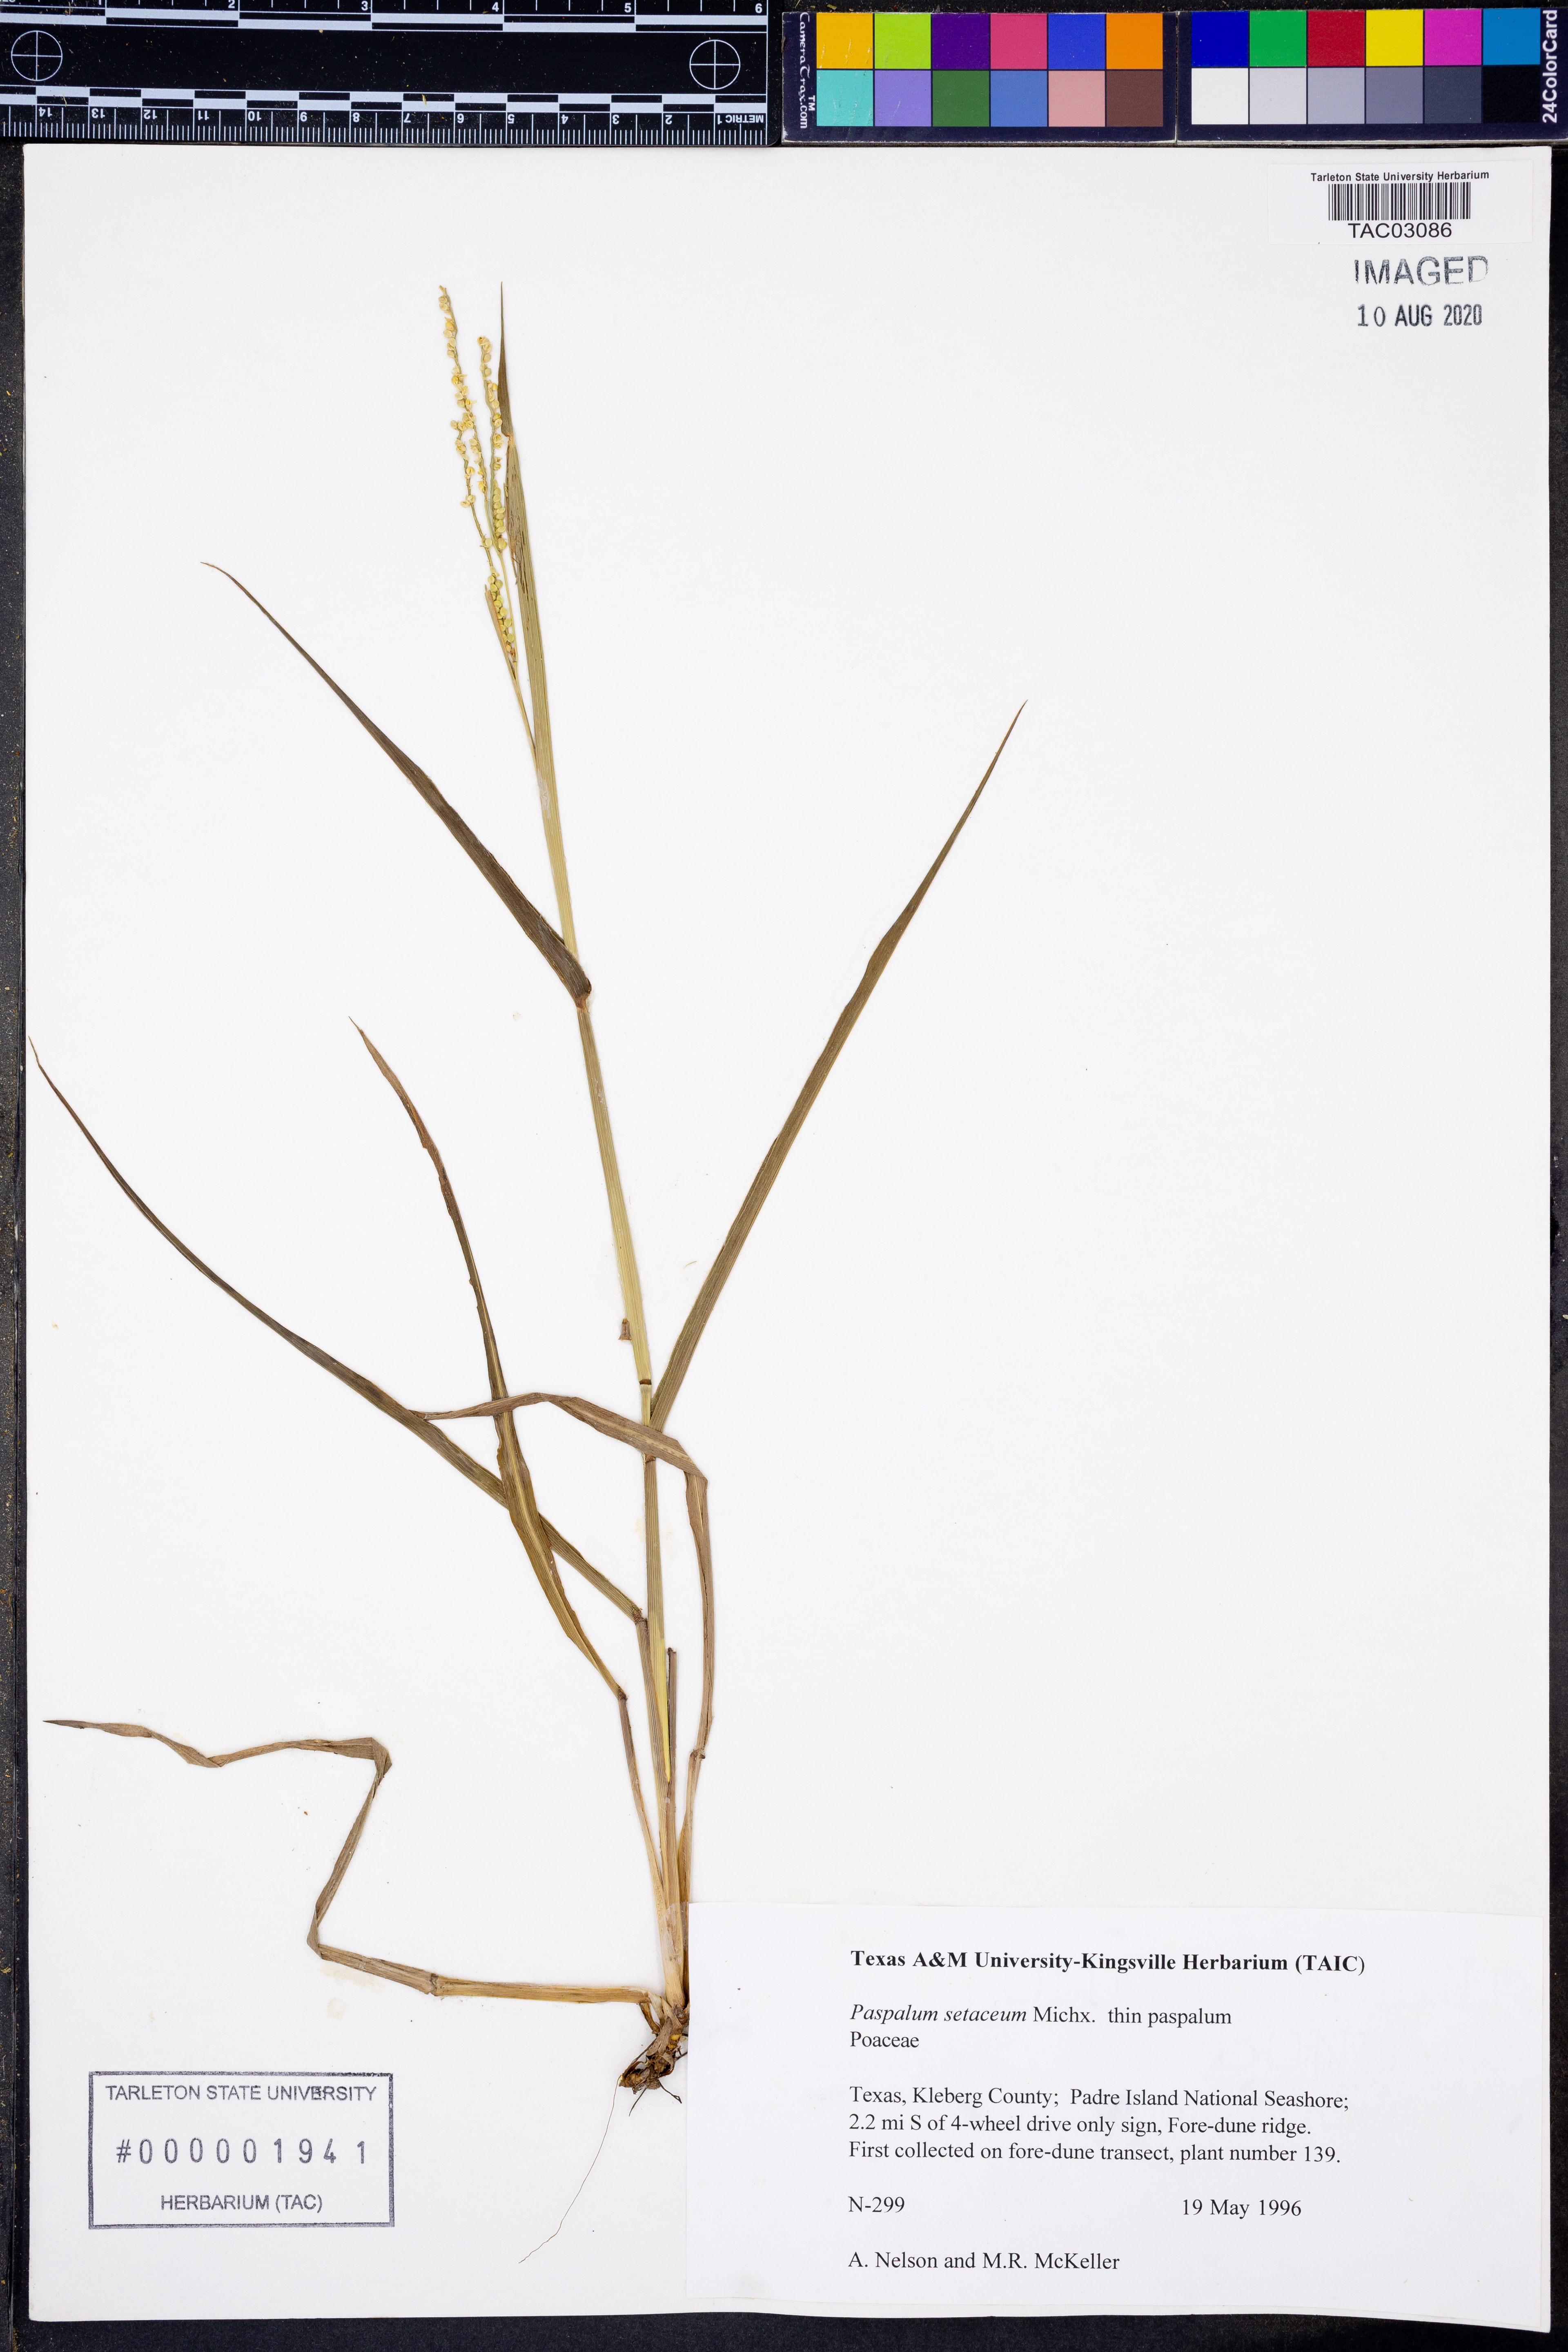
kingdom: Plantae
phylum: Tracheophyta
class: Liliopsida
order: Poales
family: Poaceae
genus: Paspalum
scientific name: Paspalum setaceum
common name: Slender paspalum
